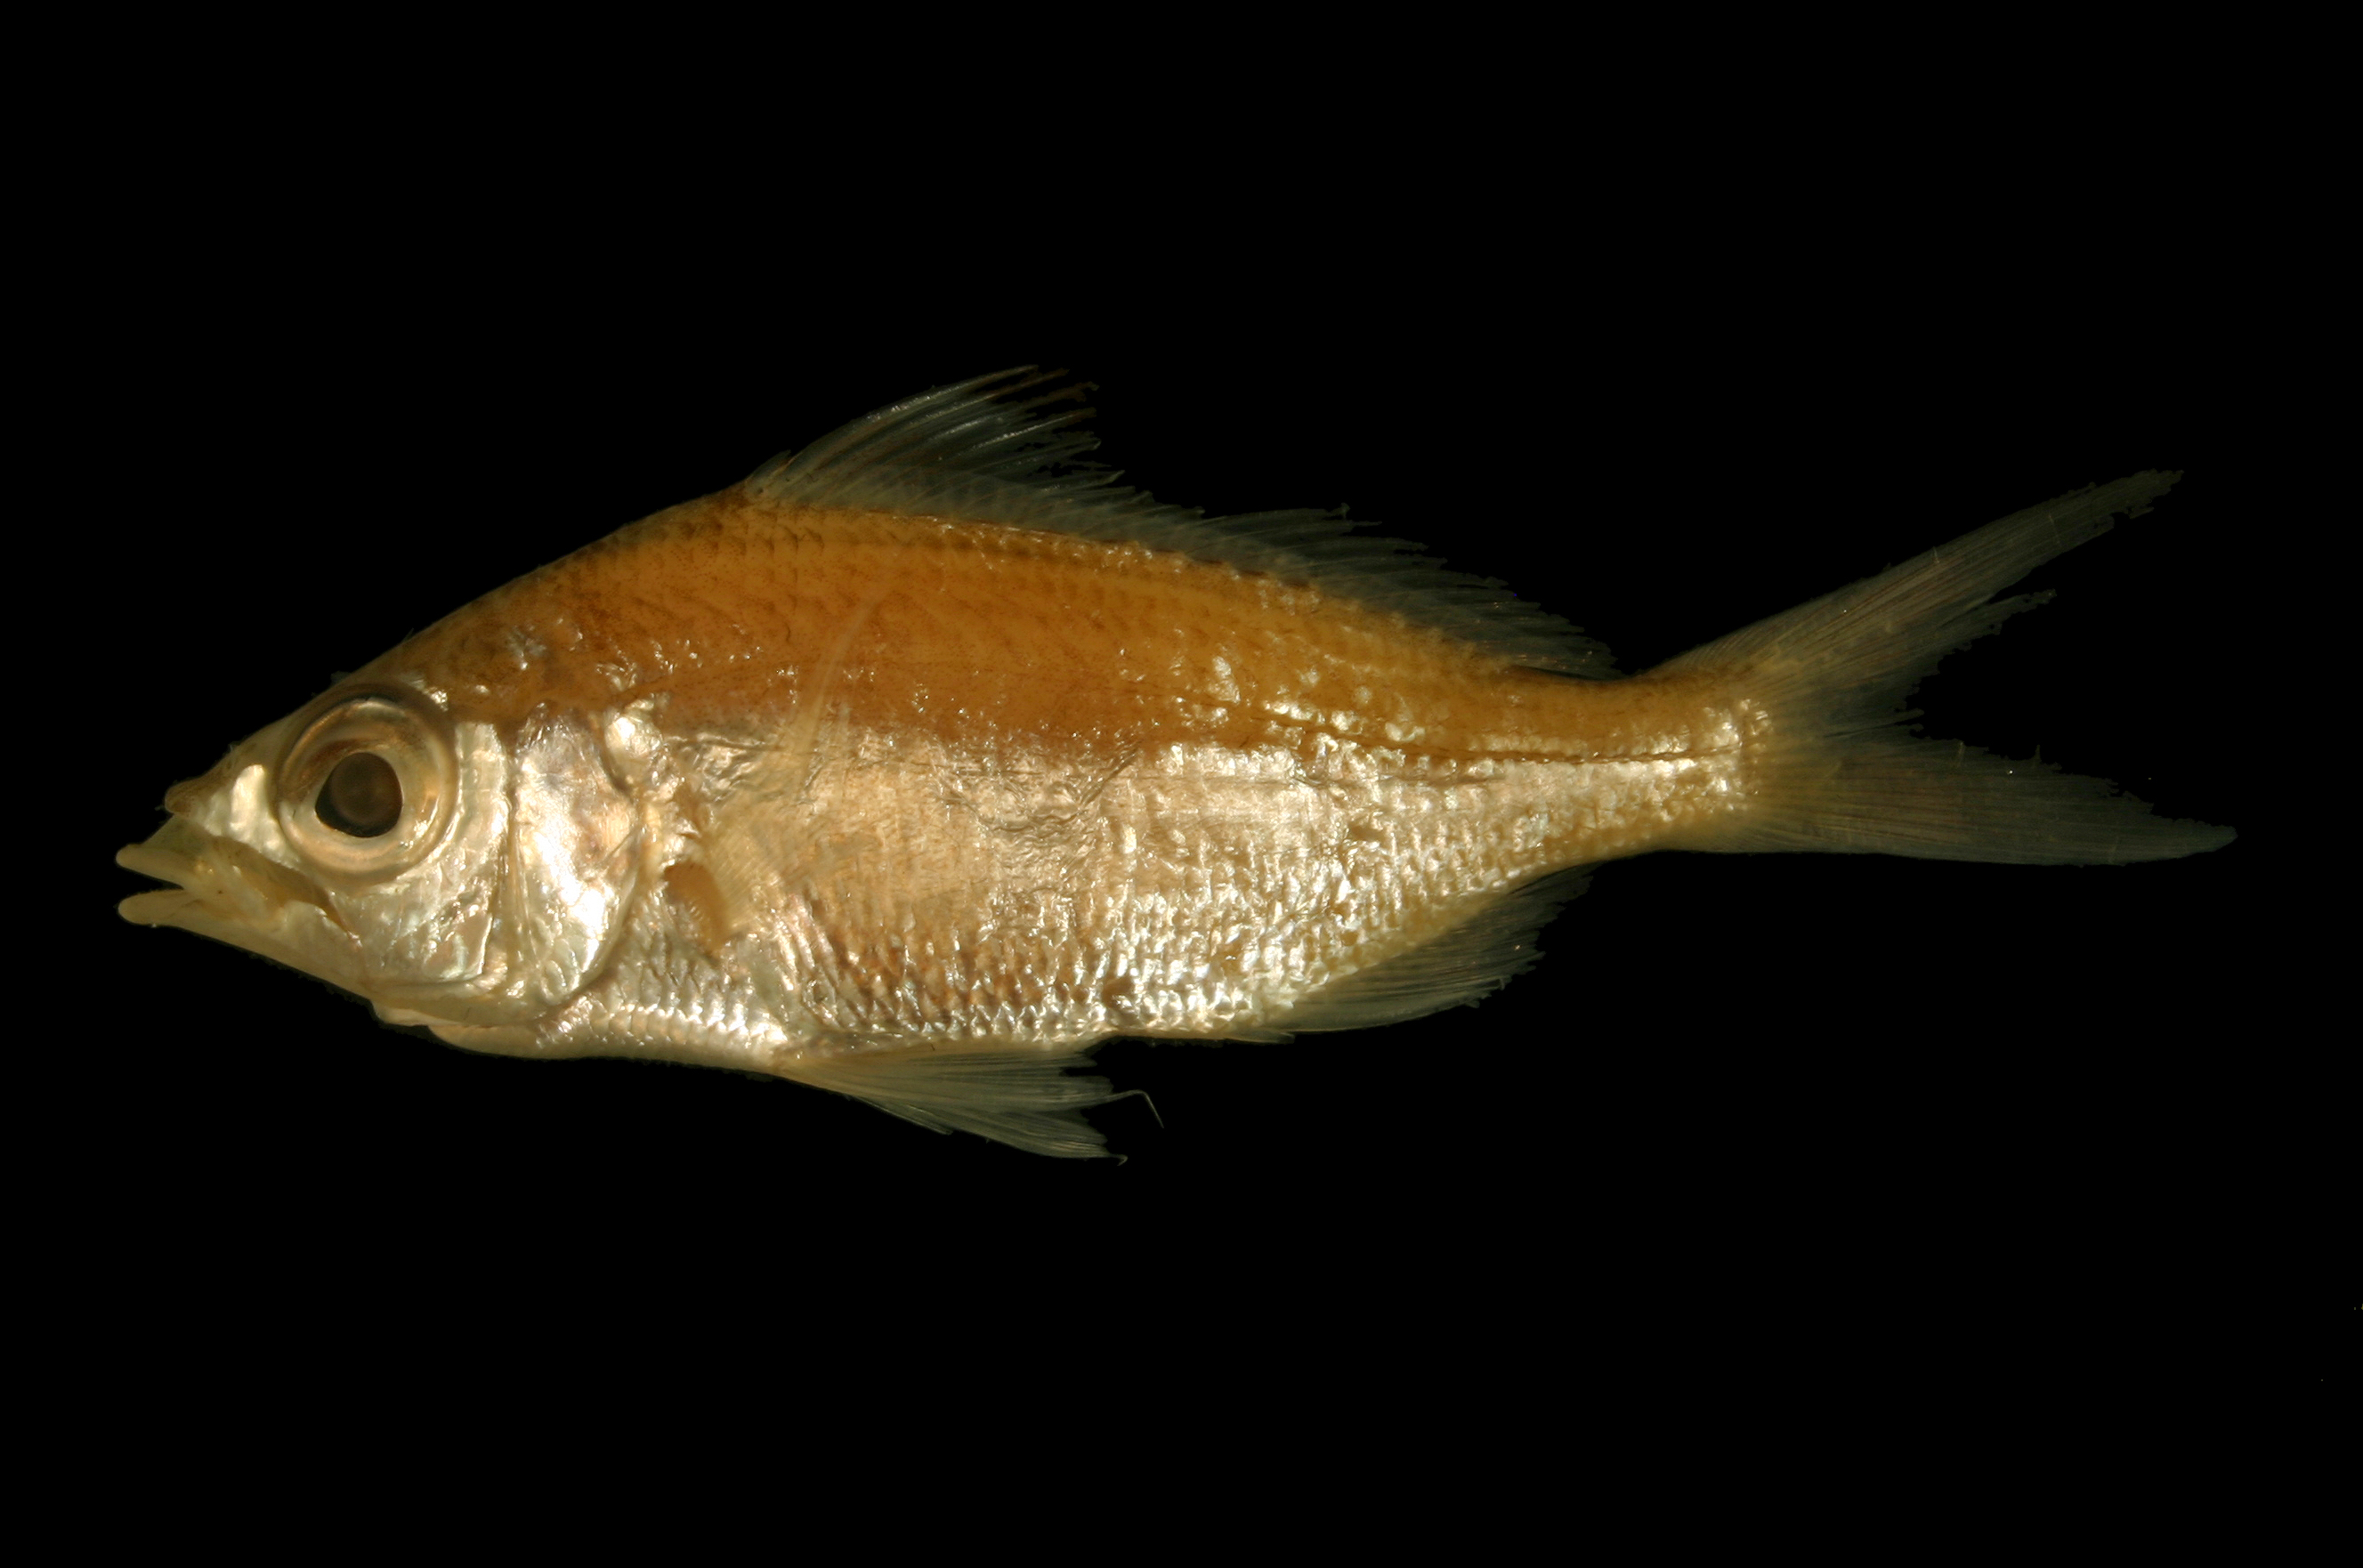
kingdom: Animalia
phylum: Chordata
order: Perciformes
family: Gerreidae
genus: Eucinostomus
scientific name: Eucinostomus melanopterus
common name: Flagfin mojarra
